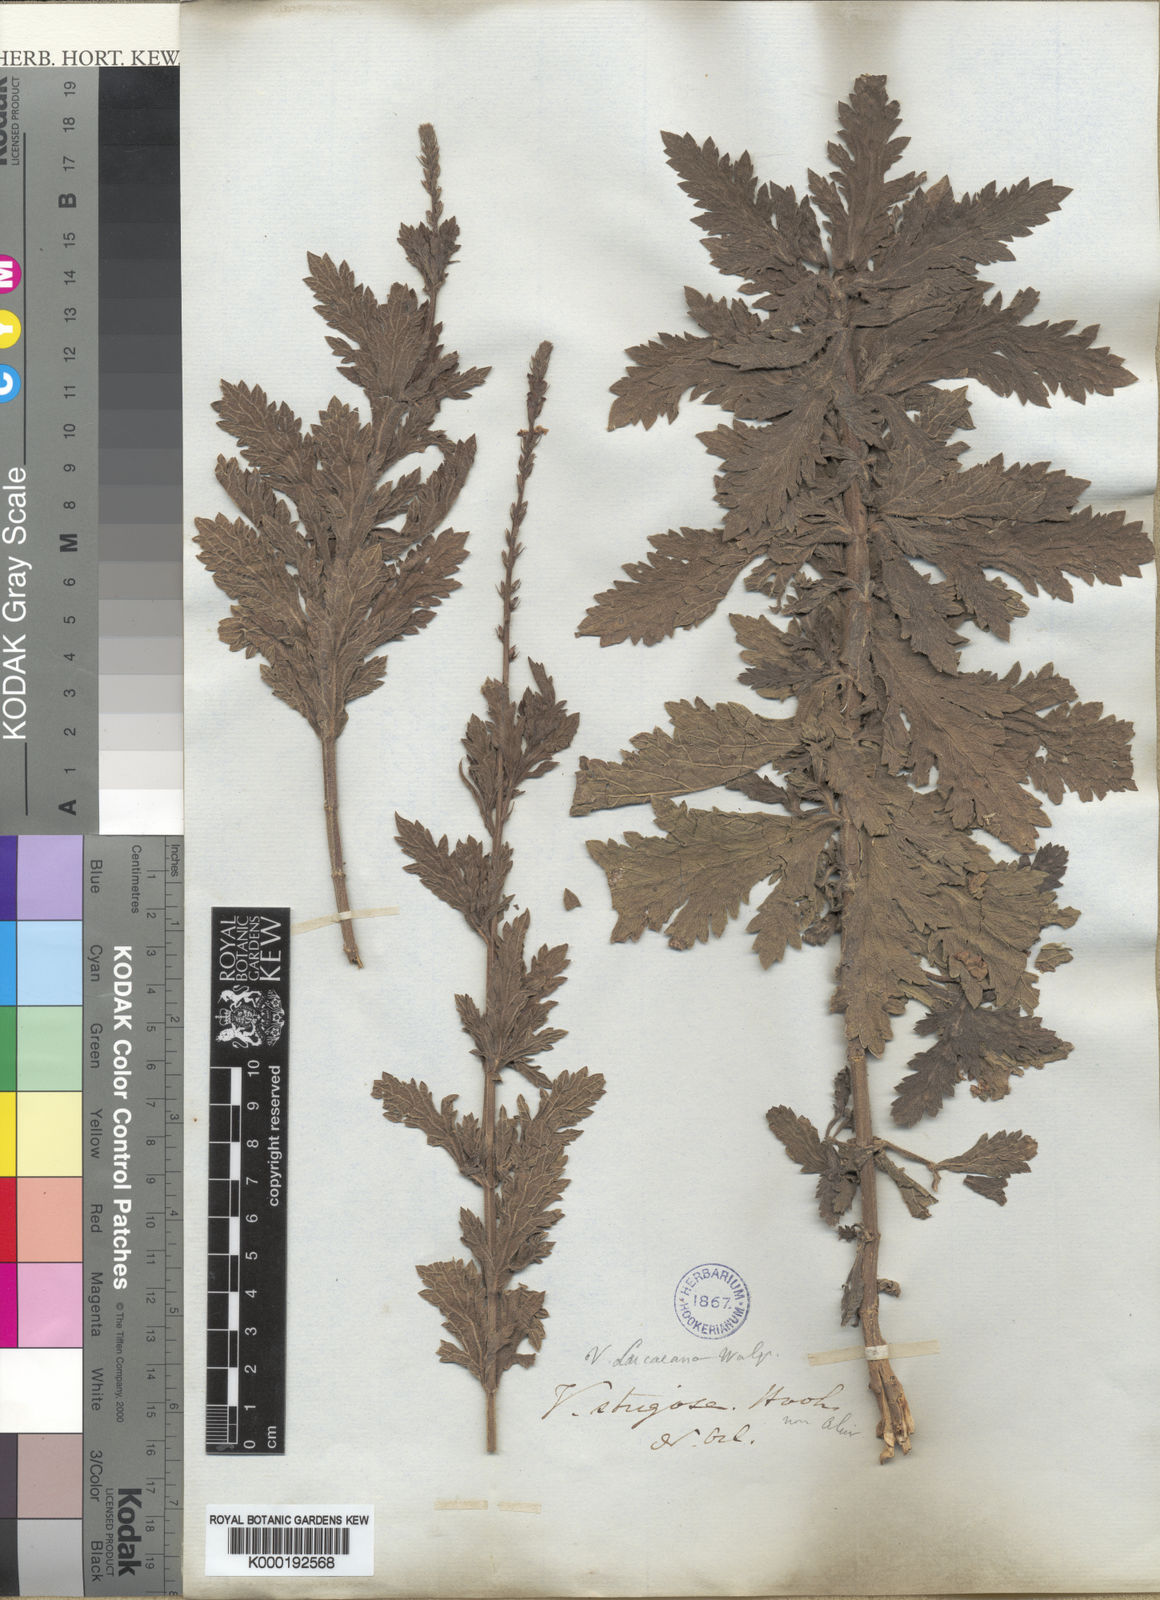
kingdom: Plantae
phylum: Tracheophyta
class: Magnoliopsida
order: Lamiales
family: Verbenaceae
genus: Verbena
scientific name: Verbena xutha
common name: Gulf vervain
